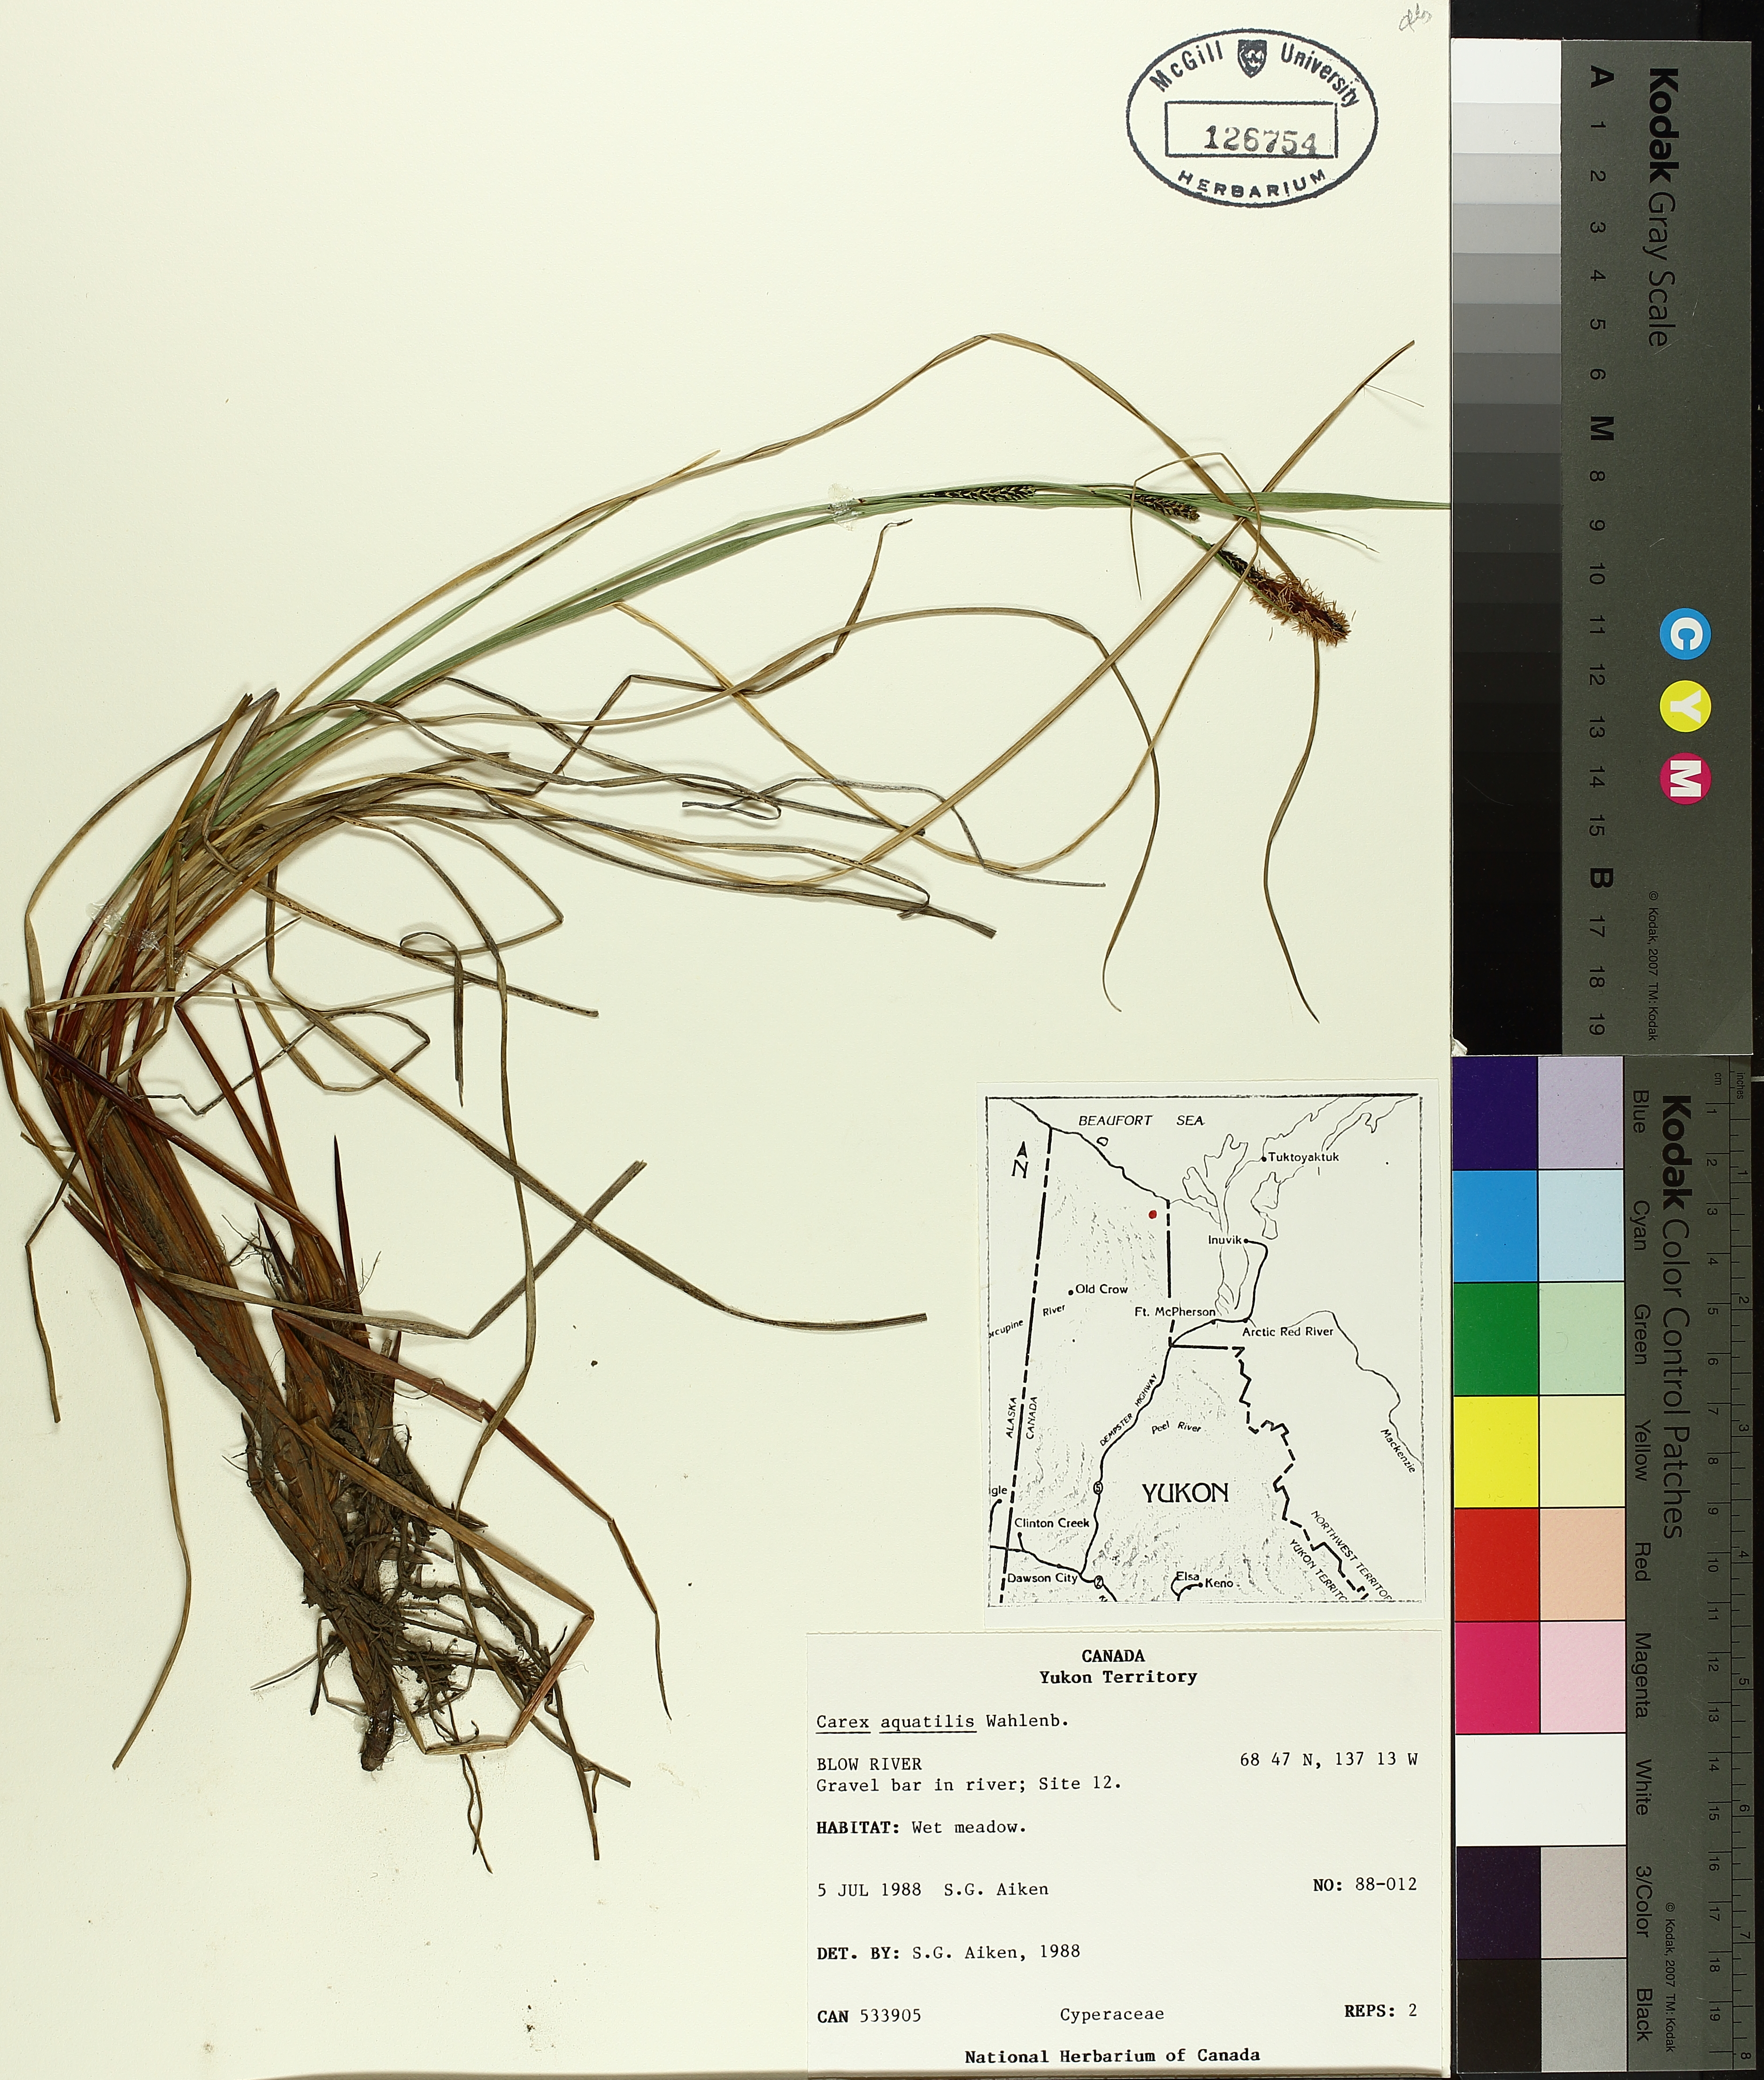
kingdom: Plantae
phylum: Tracheophyta
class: Liliopsida
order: Poales
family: Cyperaceae
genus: Carex
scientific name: Carex aquatilis
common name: Water sedge
